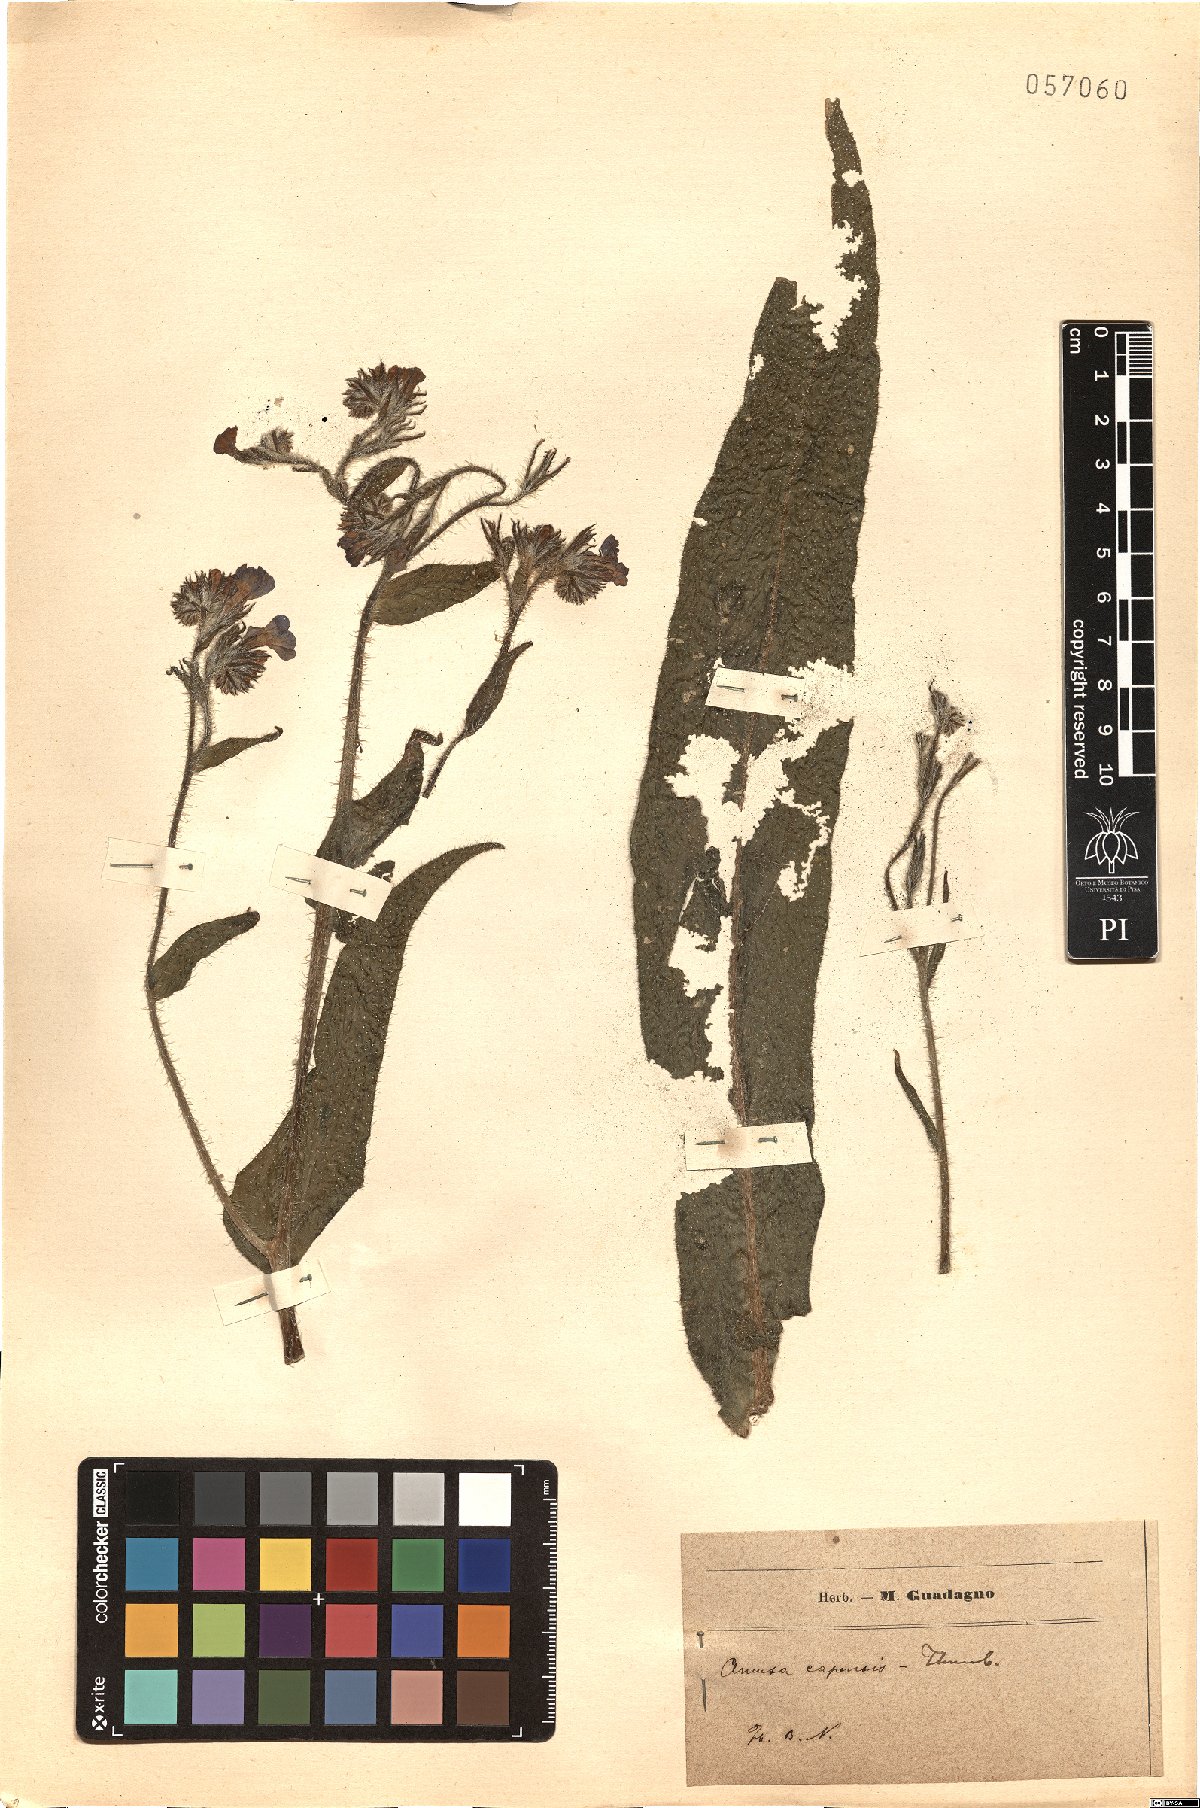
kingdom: Plantae
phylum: Tracheophyta
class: Magnoliopsida
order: Boraginales
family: Boraginaceae
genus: Anchusa
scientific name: Anchusa capensis
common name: Cape bugloss
